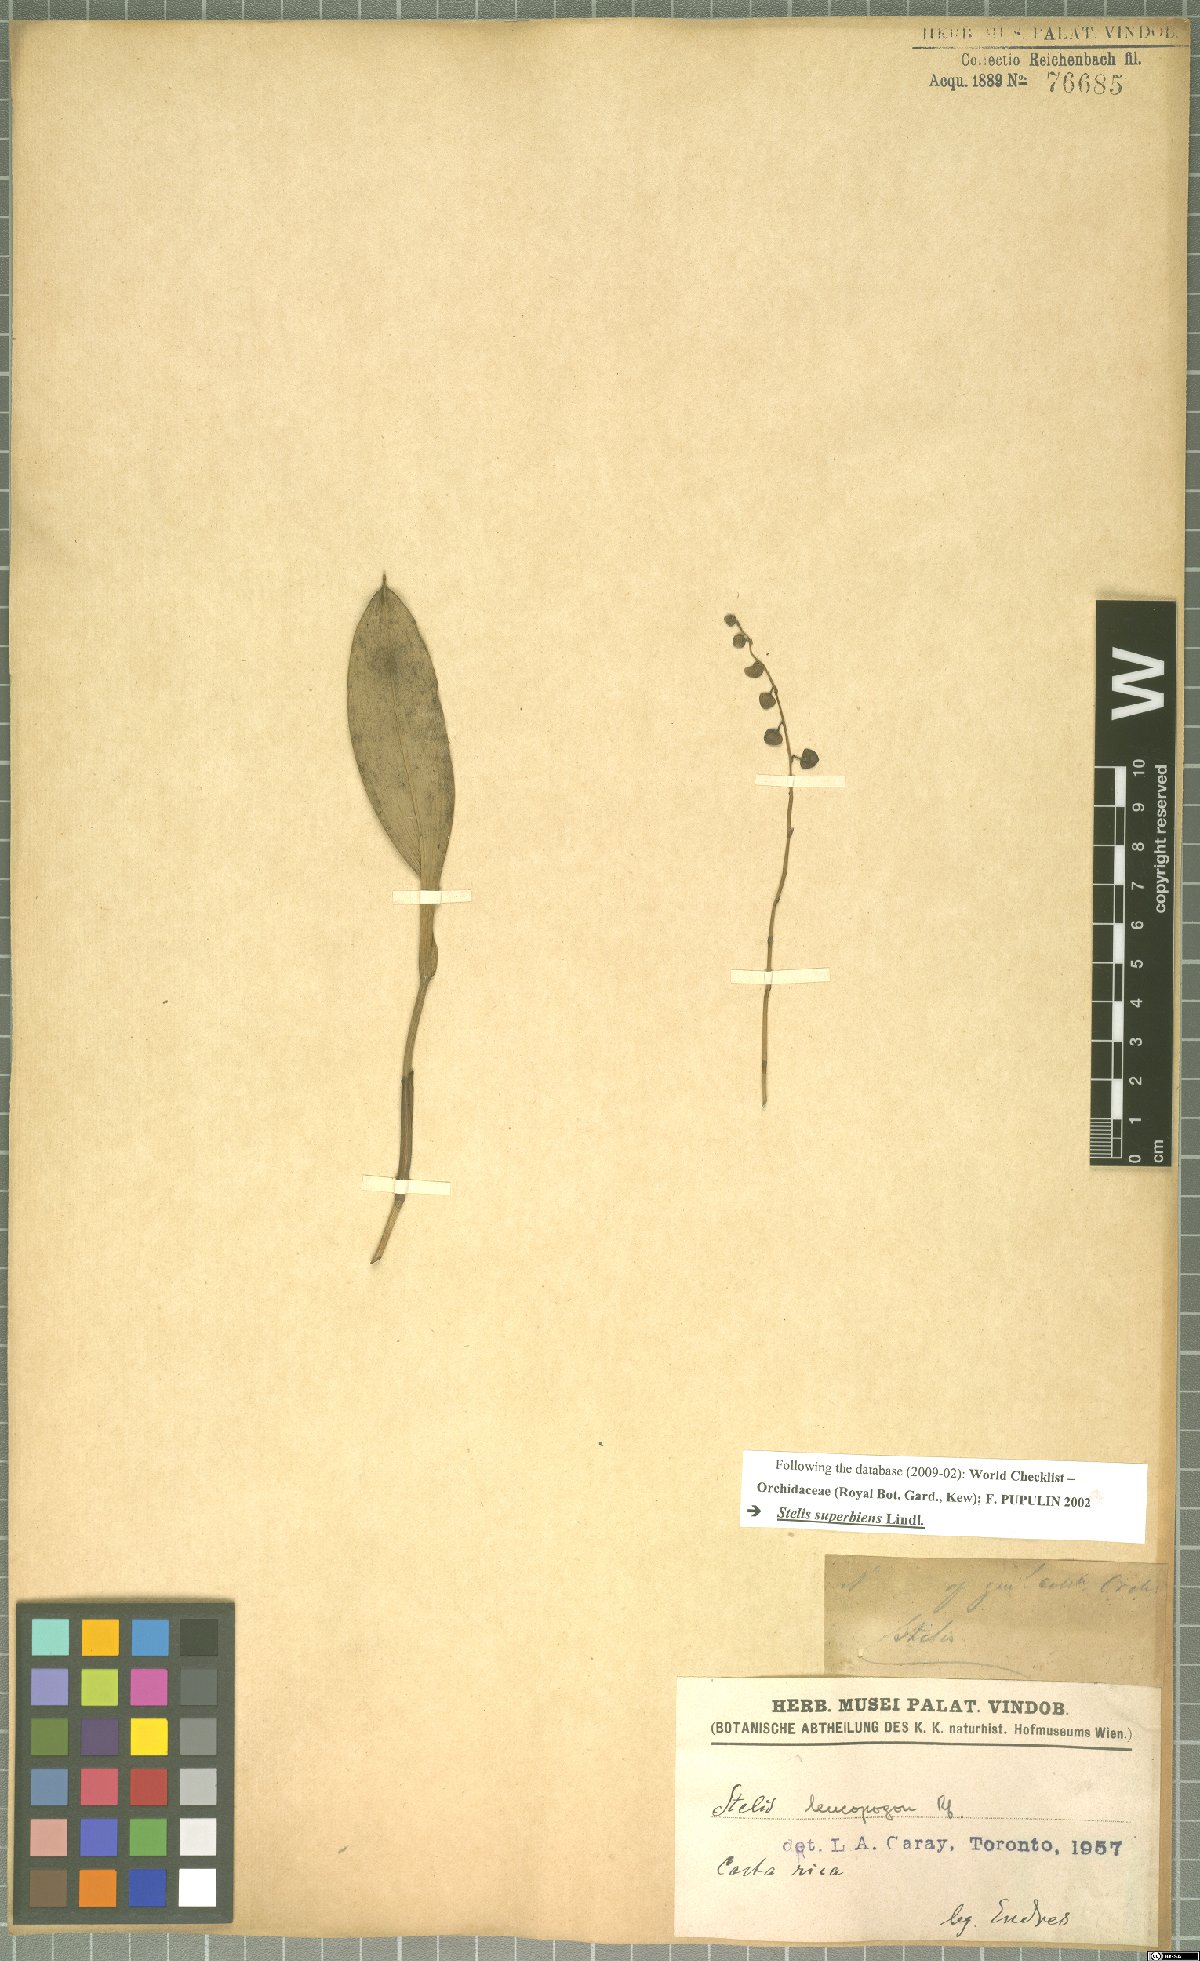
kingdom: Plantae
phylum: Tracheophyta
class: Liliopsida
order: Asparagales
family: Orchidaceae
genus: Stelis
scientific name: Stelis superbiens
